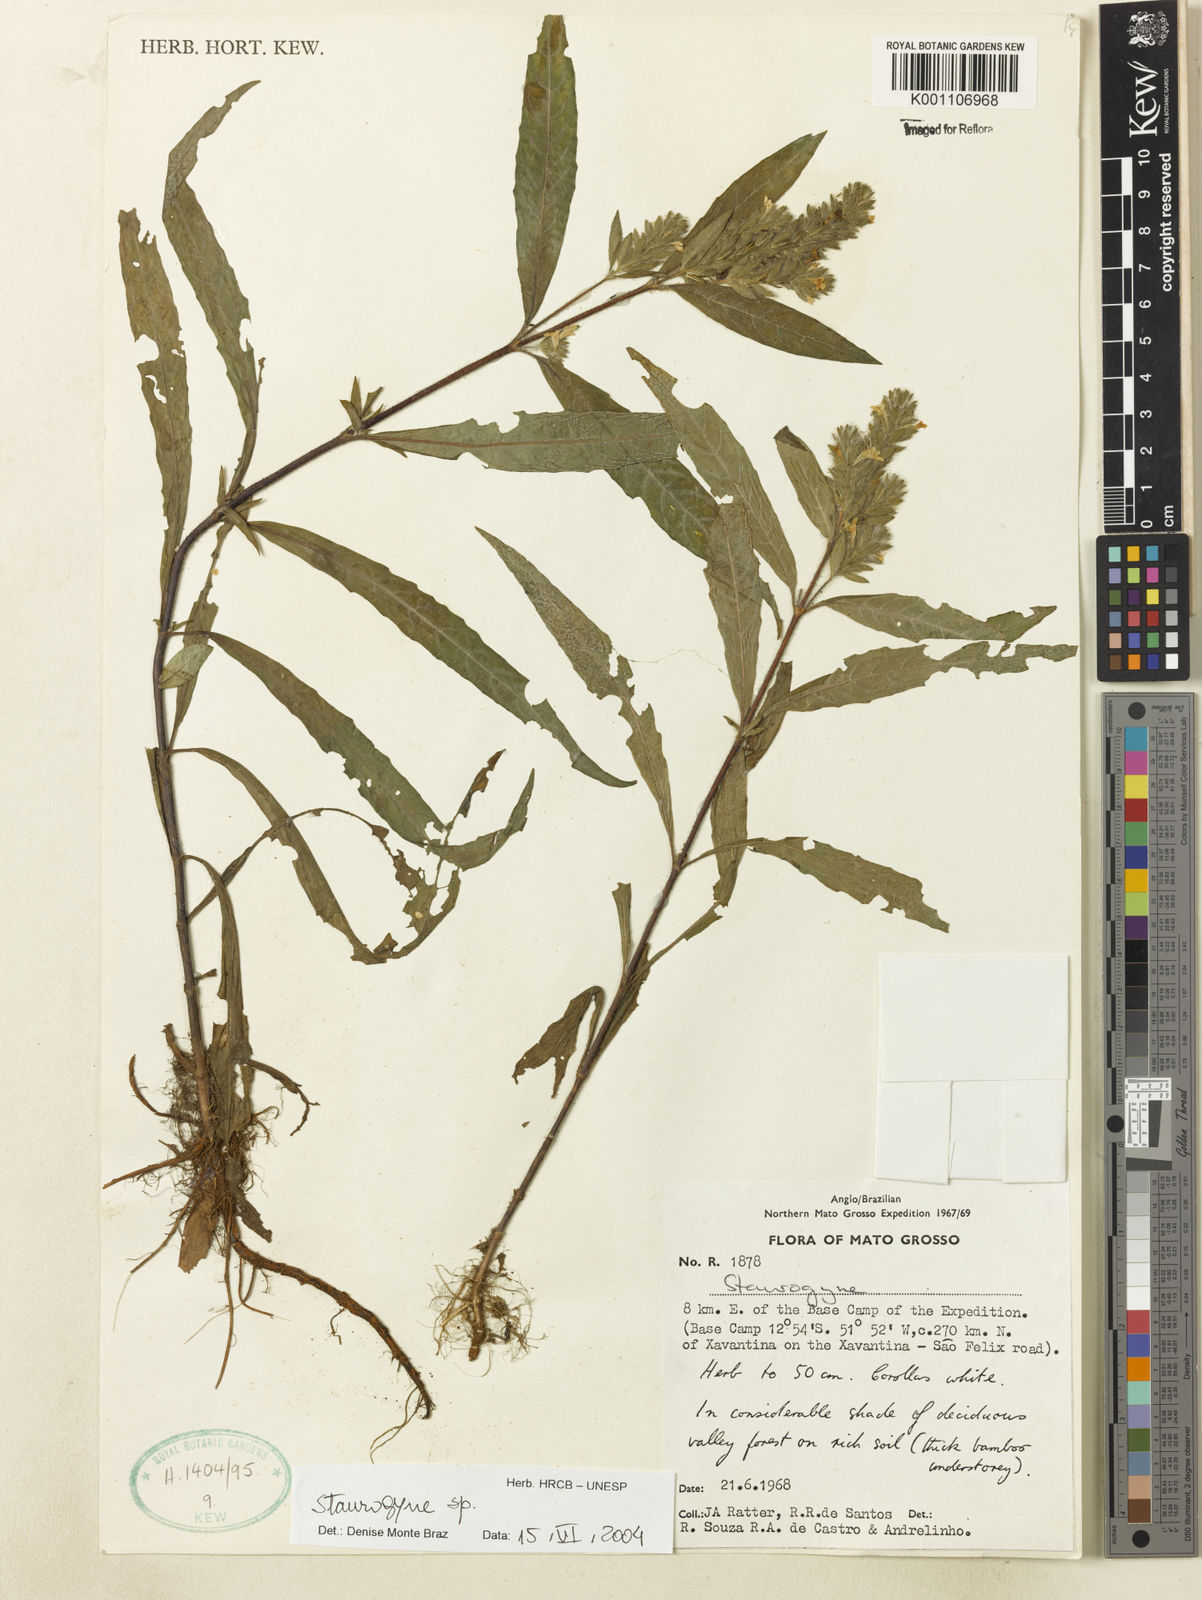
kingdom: Plantae
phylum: Tracheophyta
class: Magnoliopsida
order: Lamiales
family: Acanthaceae
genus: Staurogyne
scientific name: Staurogyne
